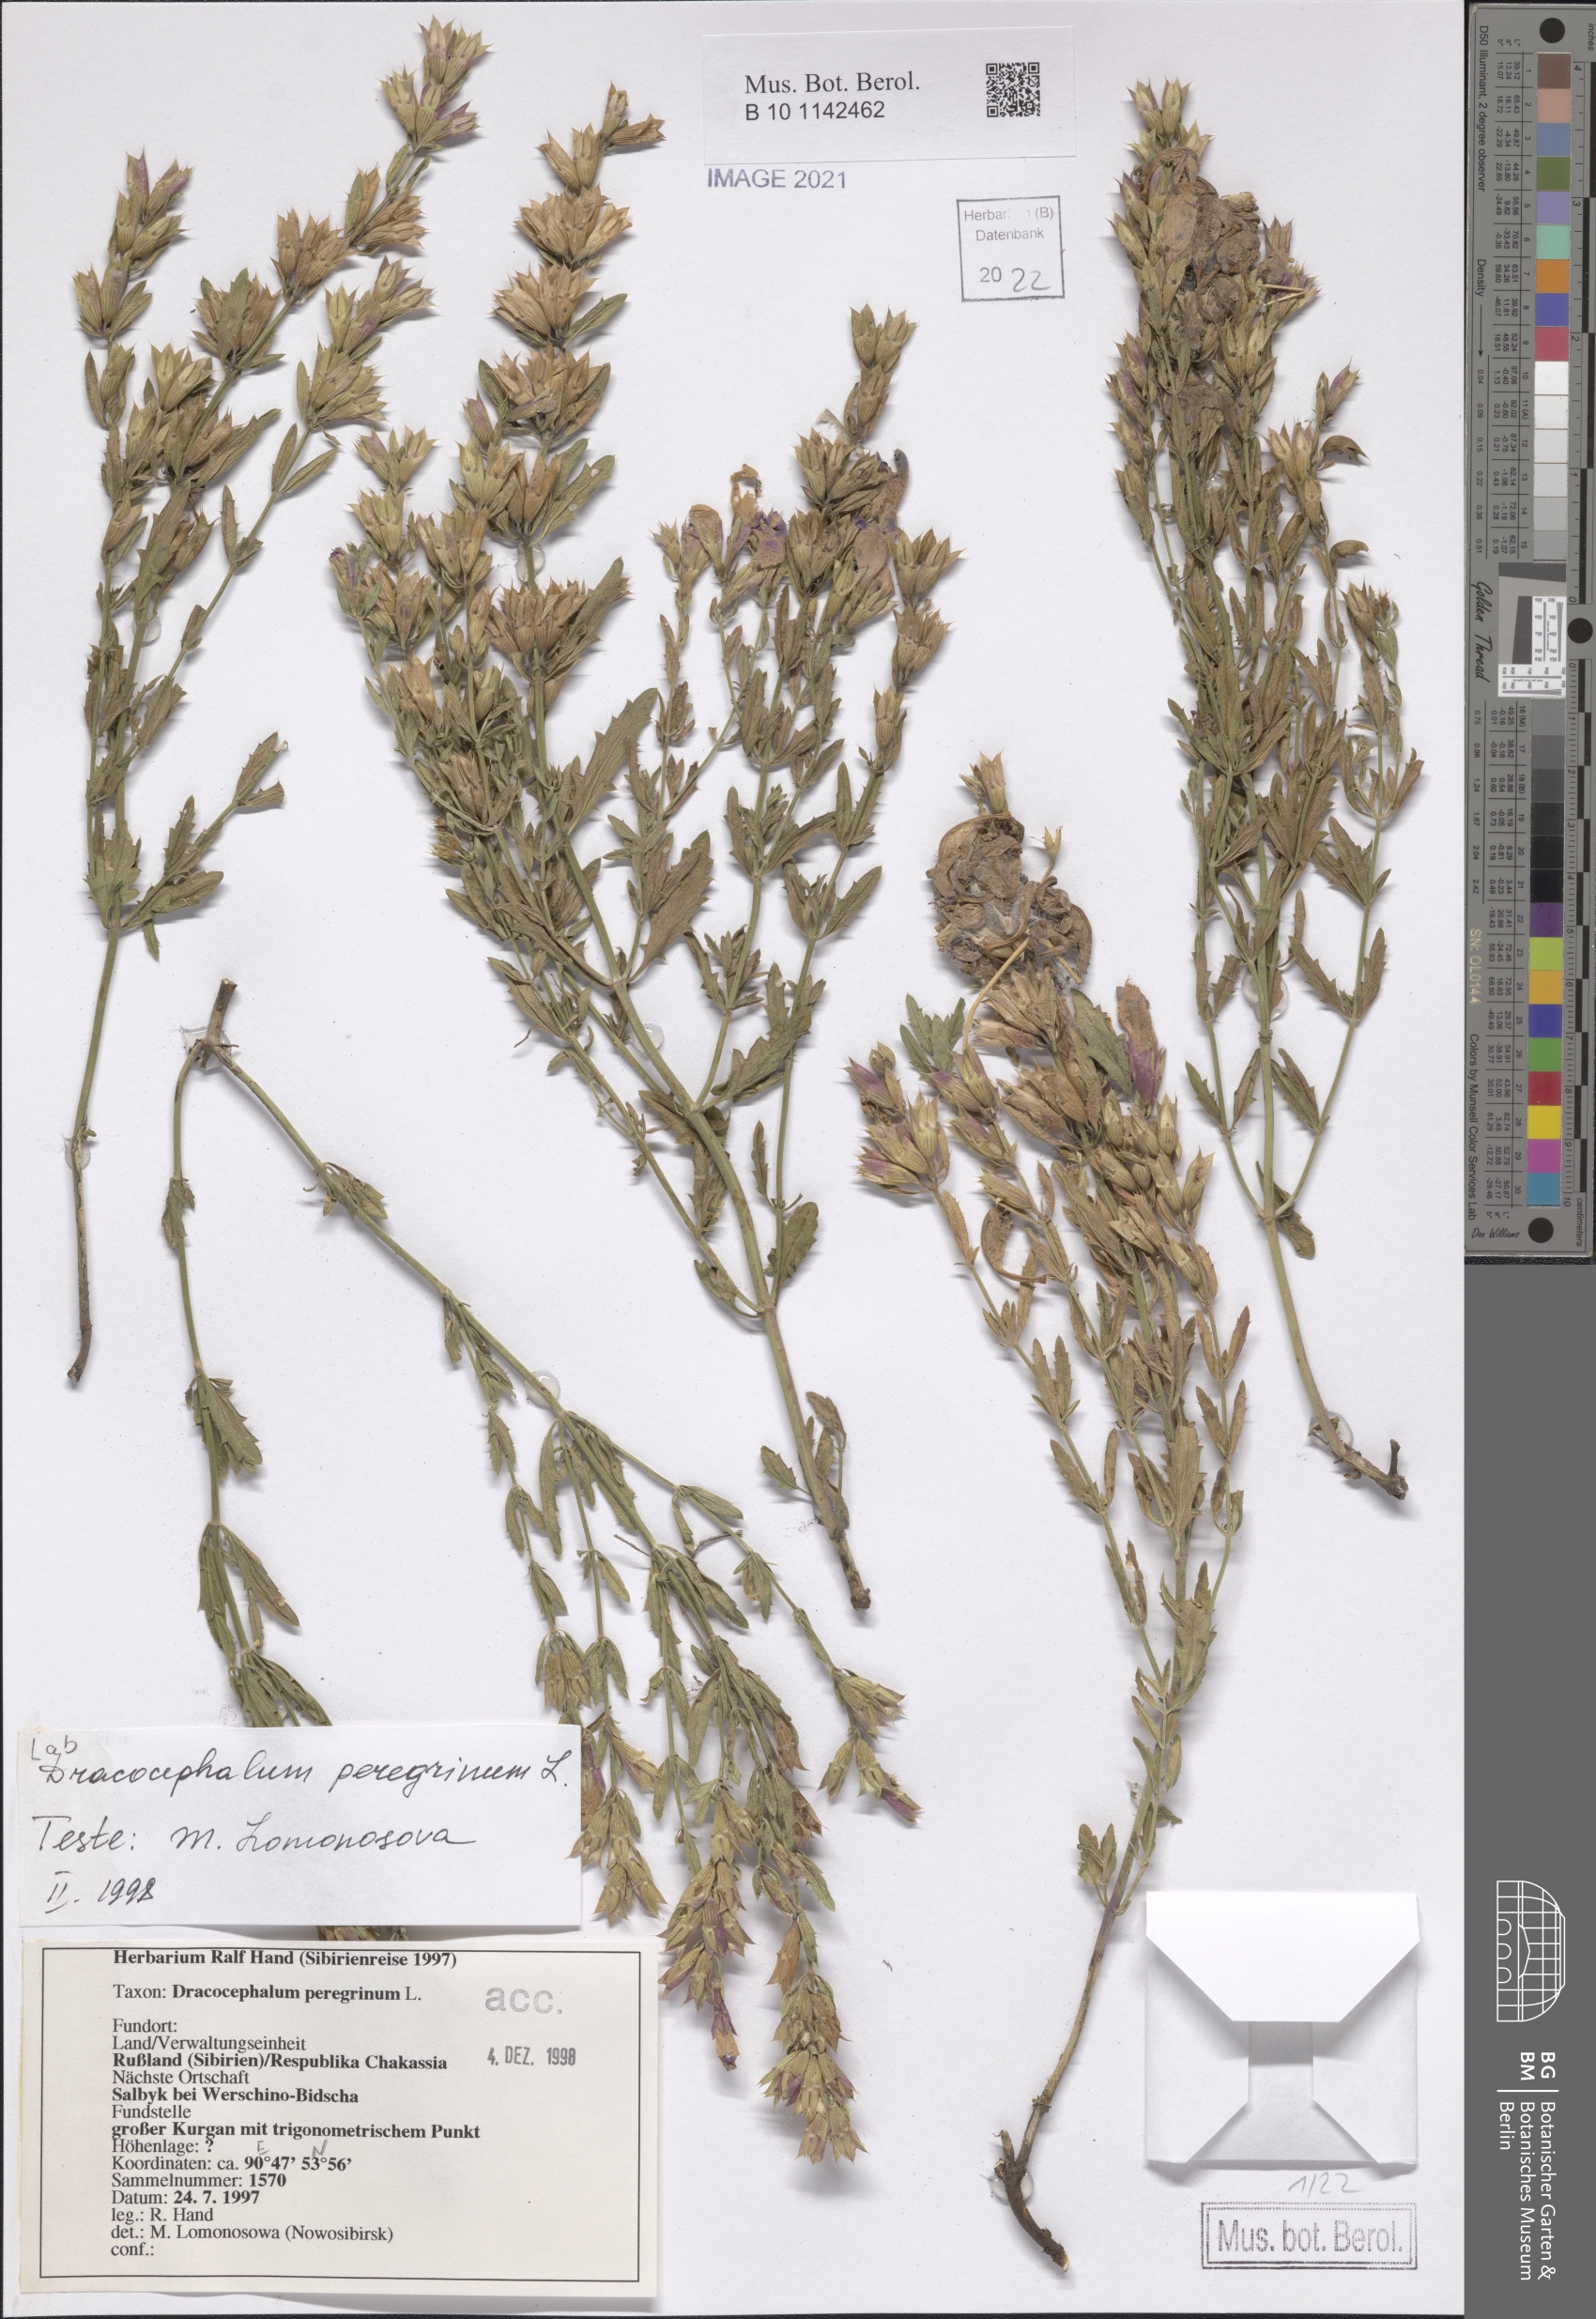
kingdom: Plantae
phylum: Tracheophyta
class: Magnoliopsida
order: Lamiales
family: Lamiaceae
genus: Dracocephalum
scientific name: Dracocephalum peregrinum
